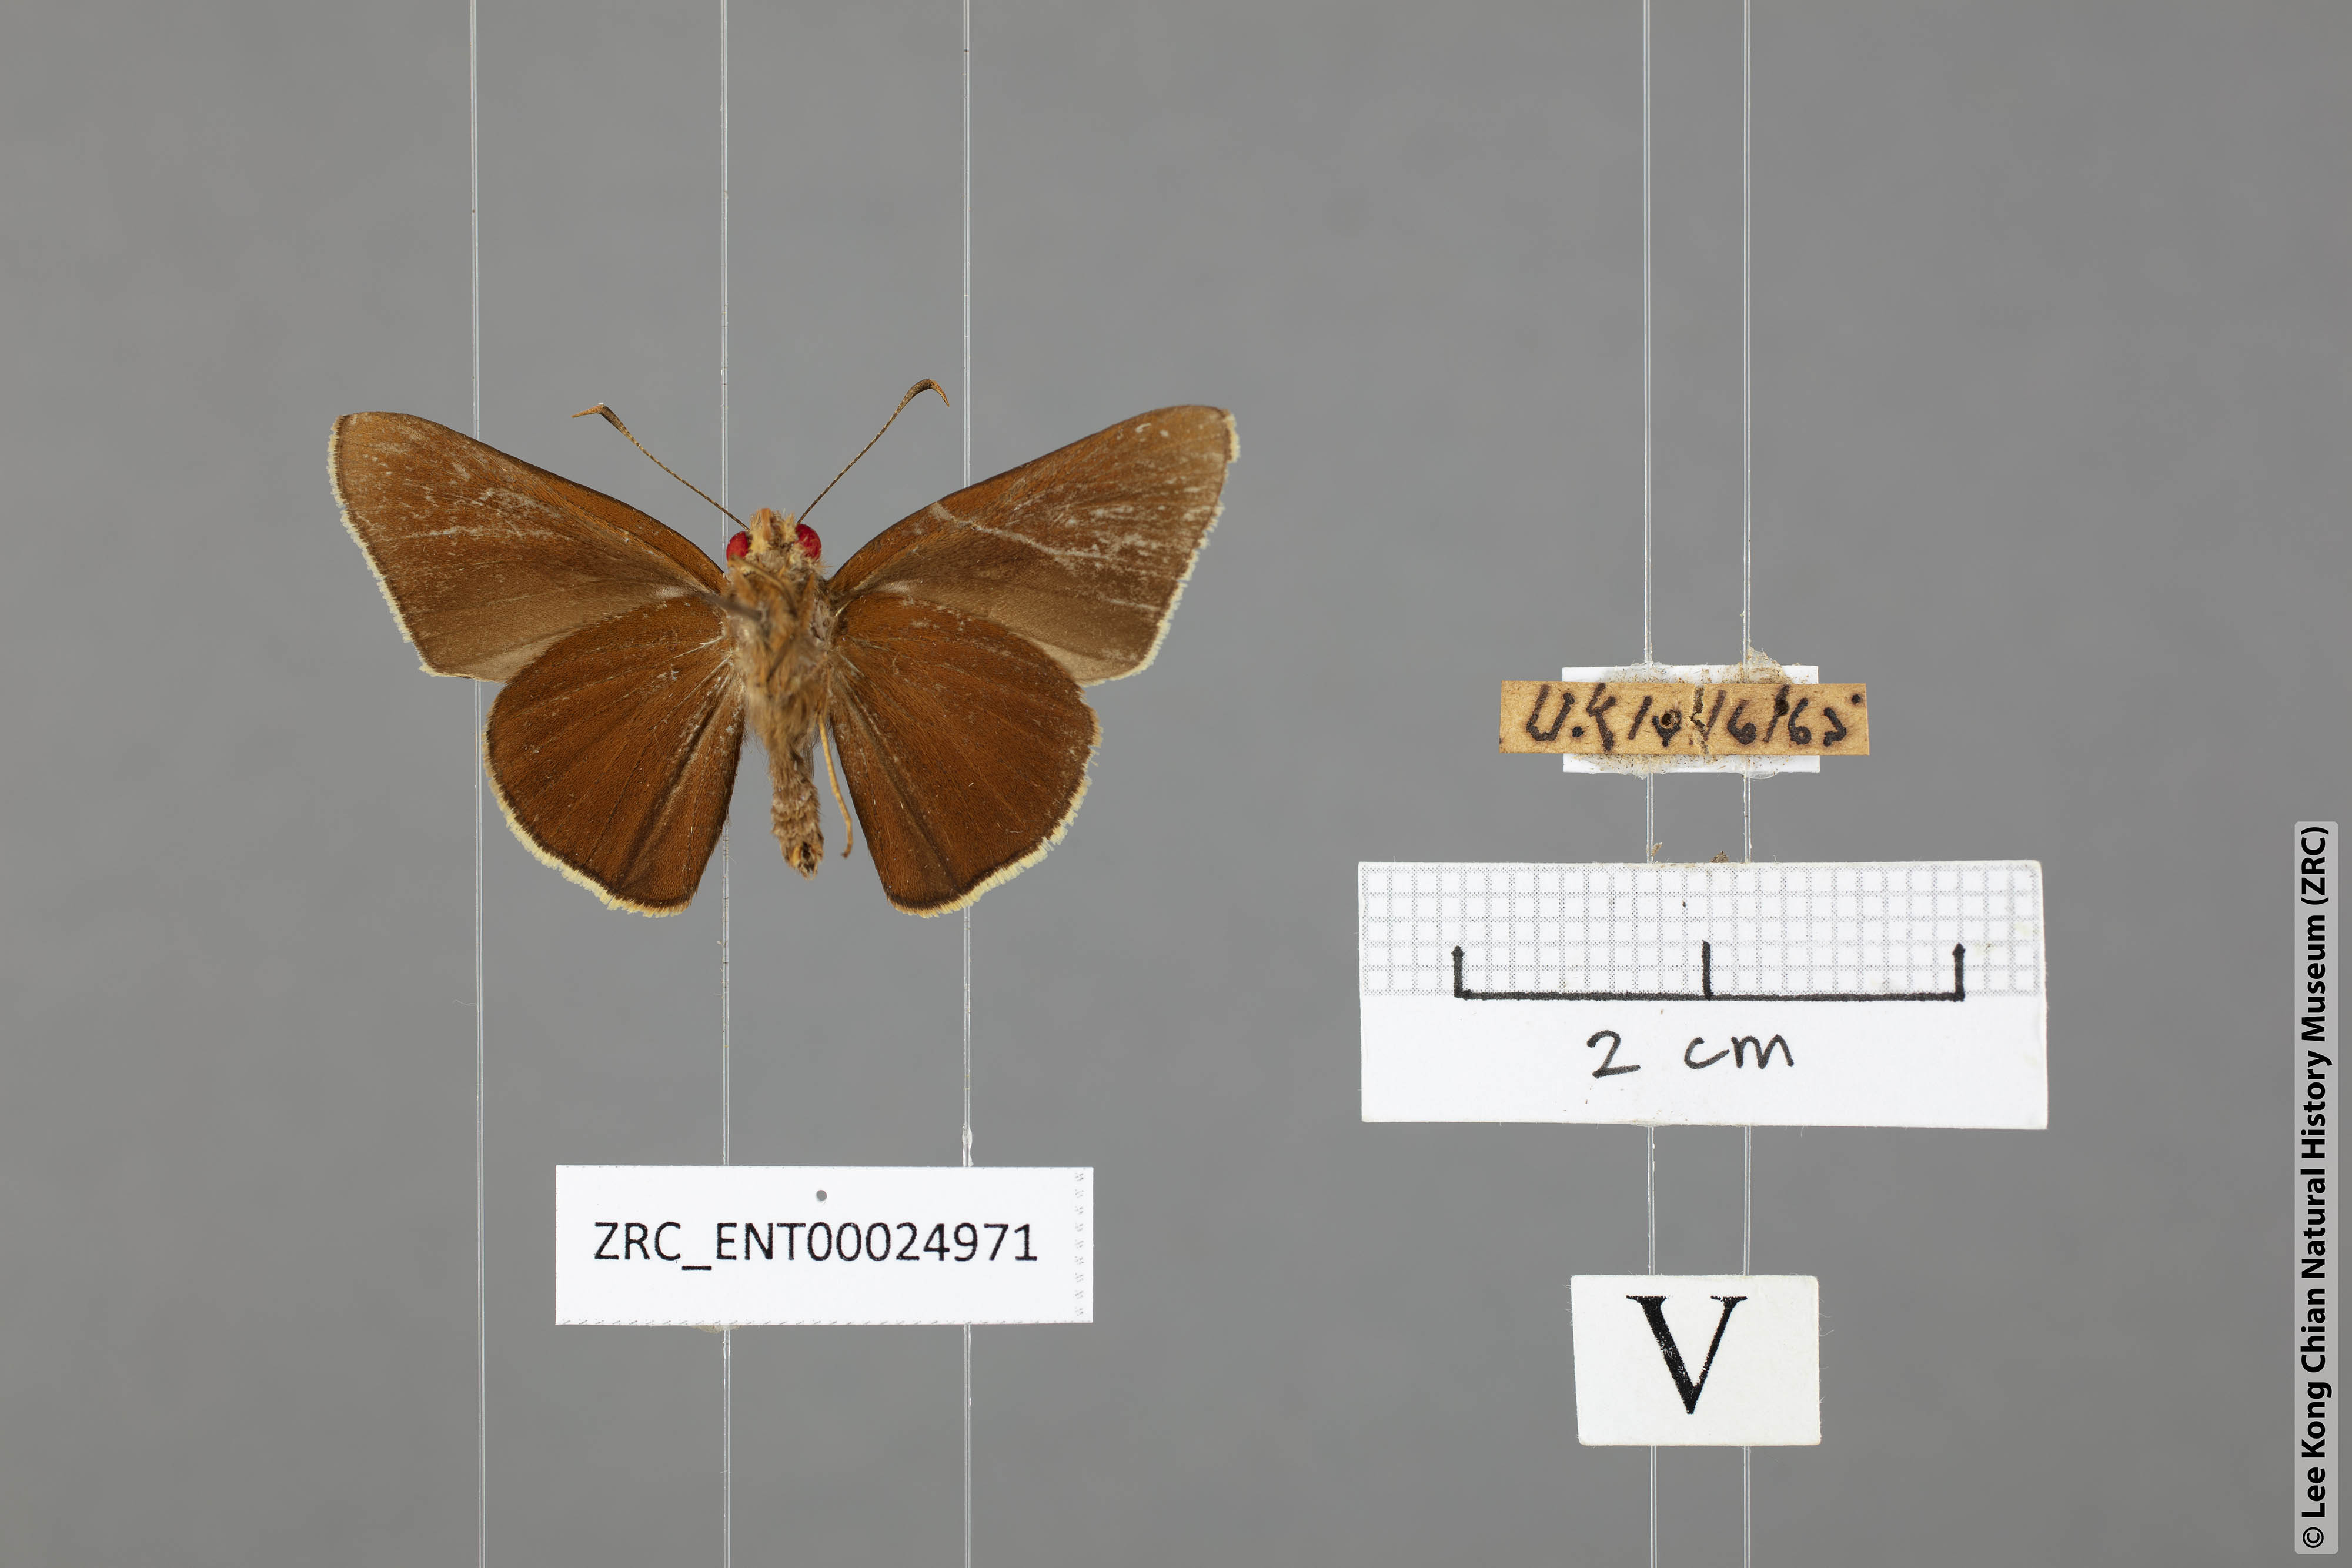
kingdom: Animalia
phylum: Arthropoda
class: Insecta
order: Lepidoptera
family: Hesperiidae
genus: Matapa
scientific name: Matapa aria
